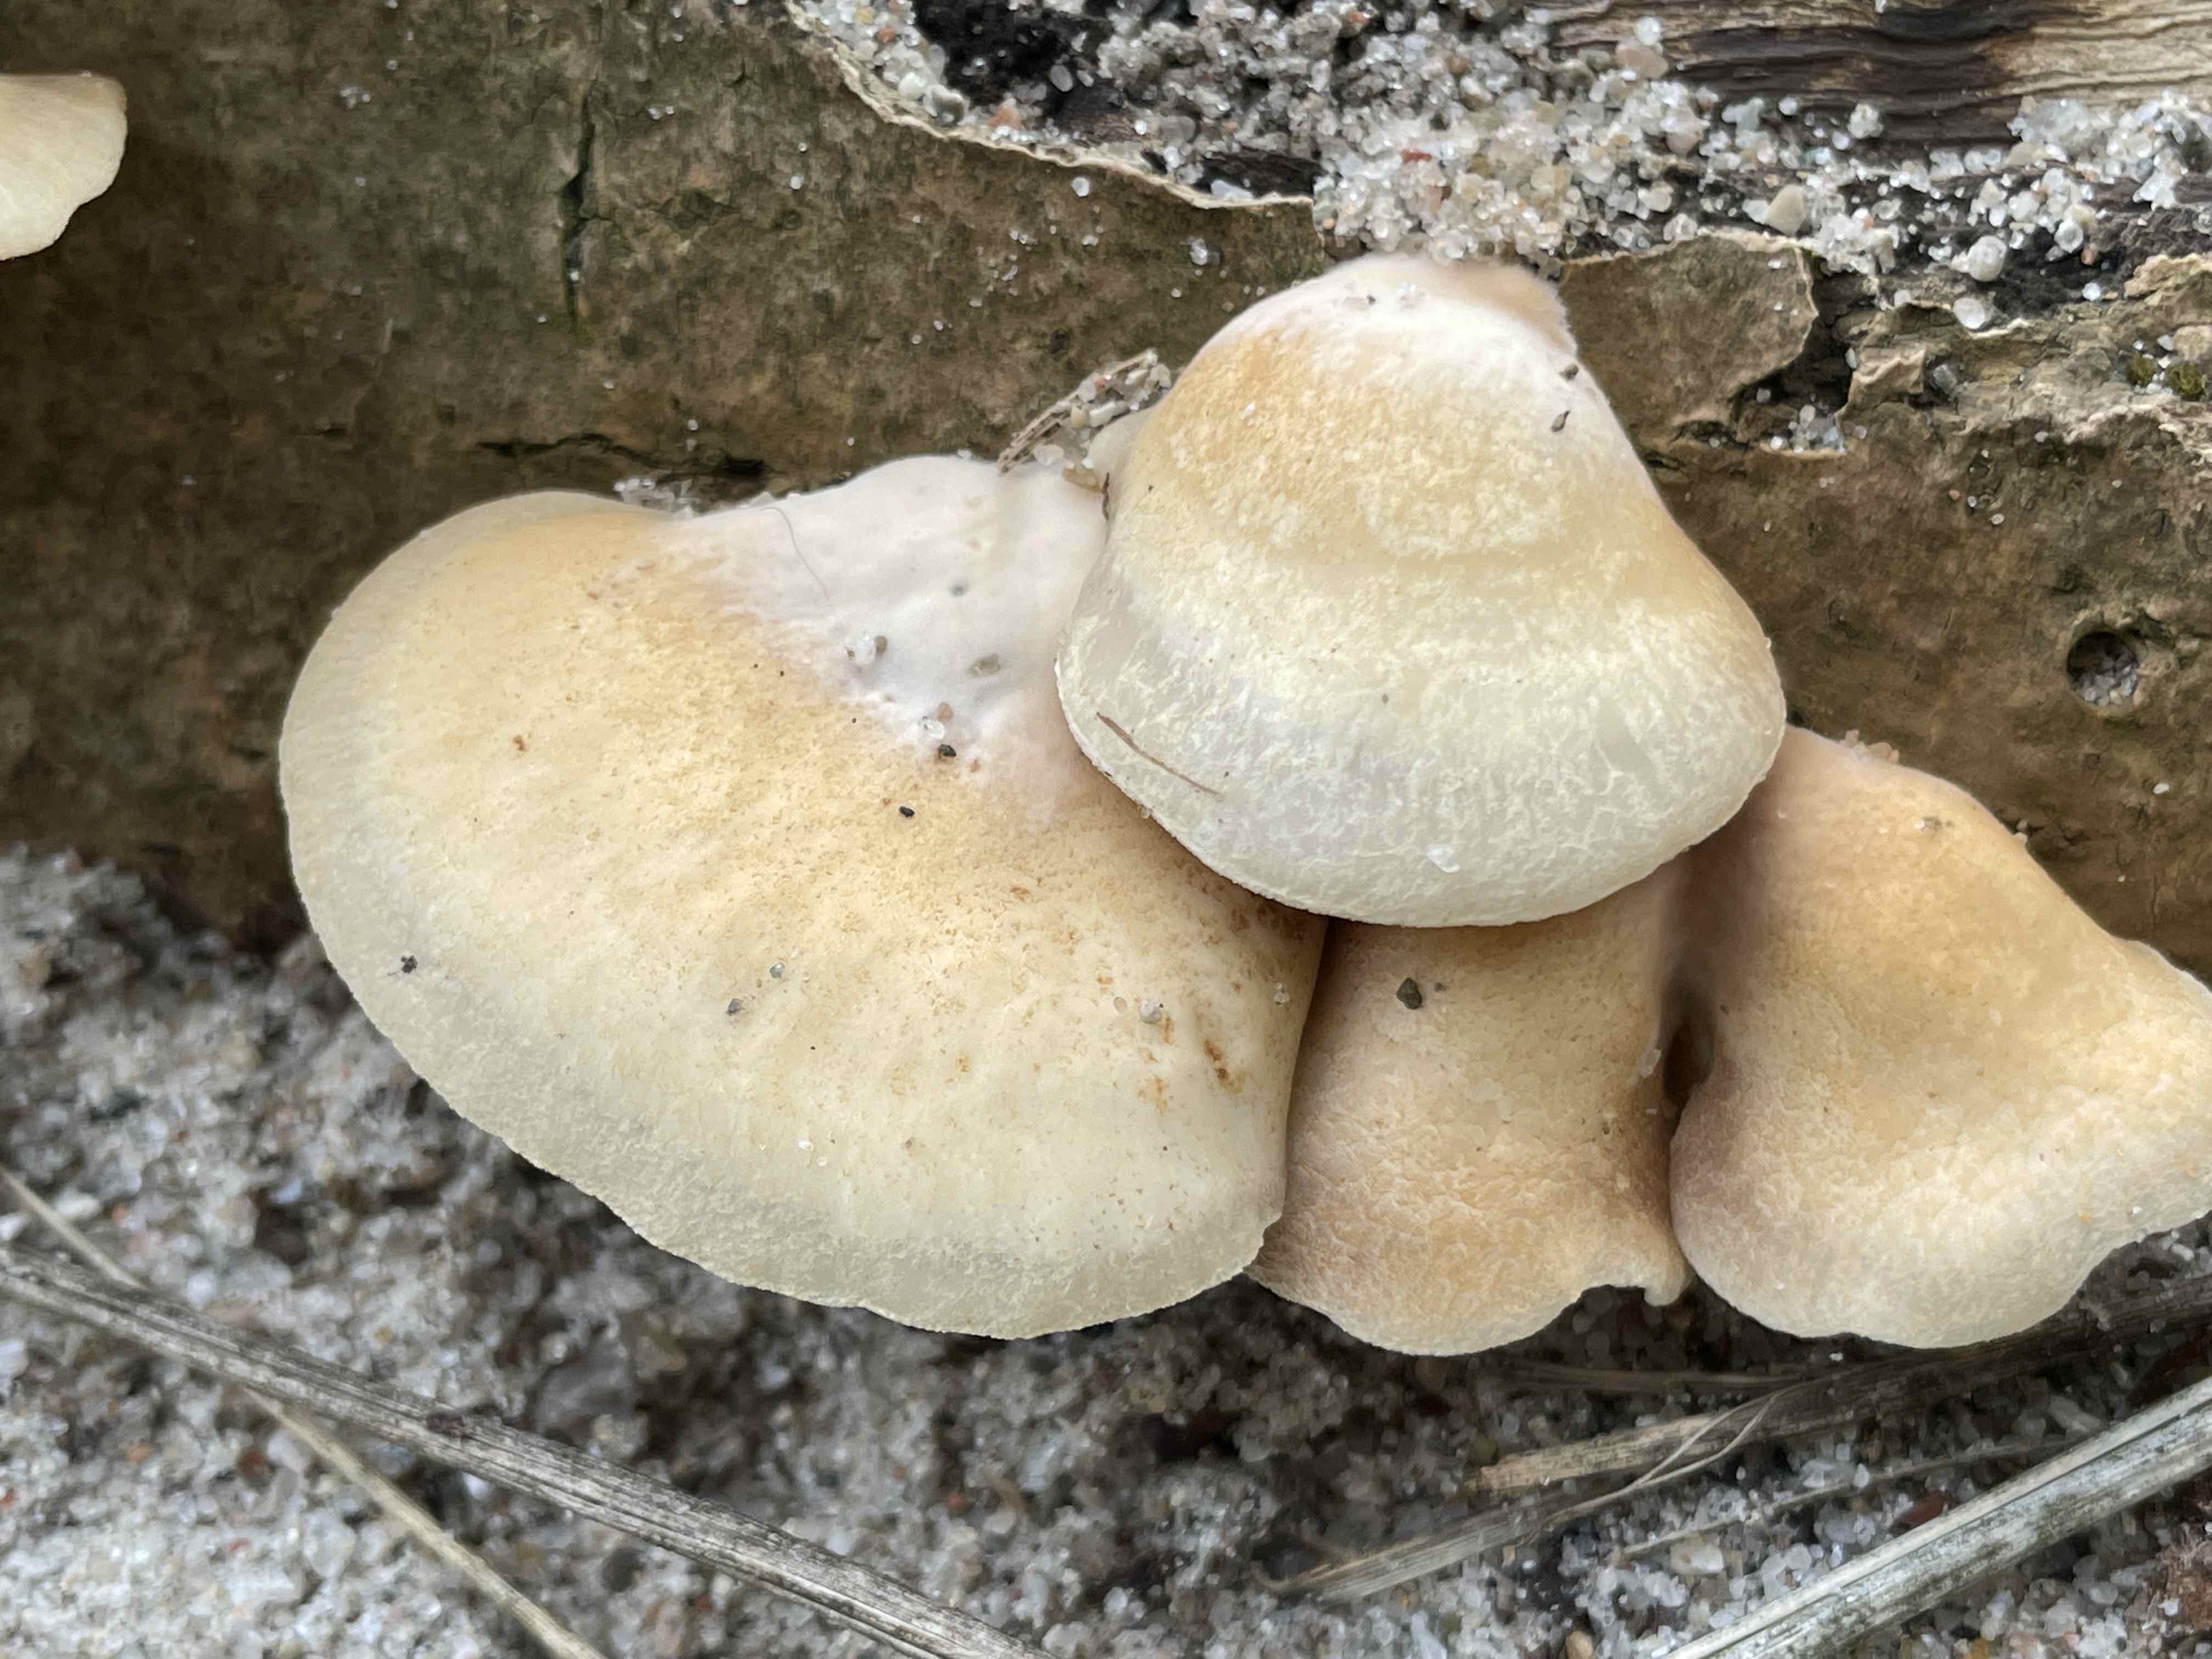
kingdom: Fungi
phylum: Basidiomycota
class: Agaricomycetes
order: Agaricales
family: Crepidotaceae
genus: Crepidotus
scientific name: Crepidotus mollis
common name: blød muslingesvamp
